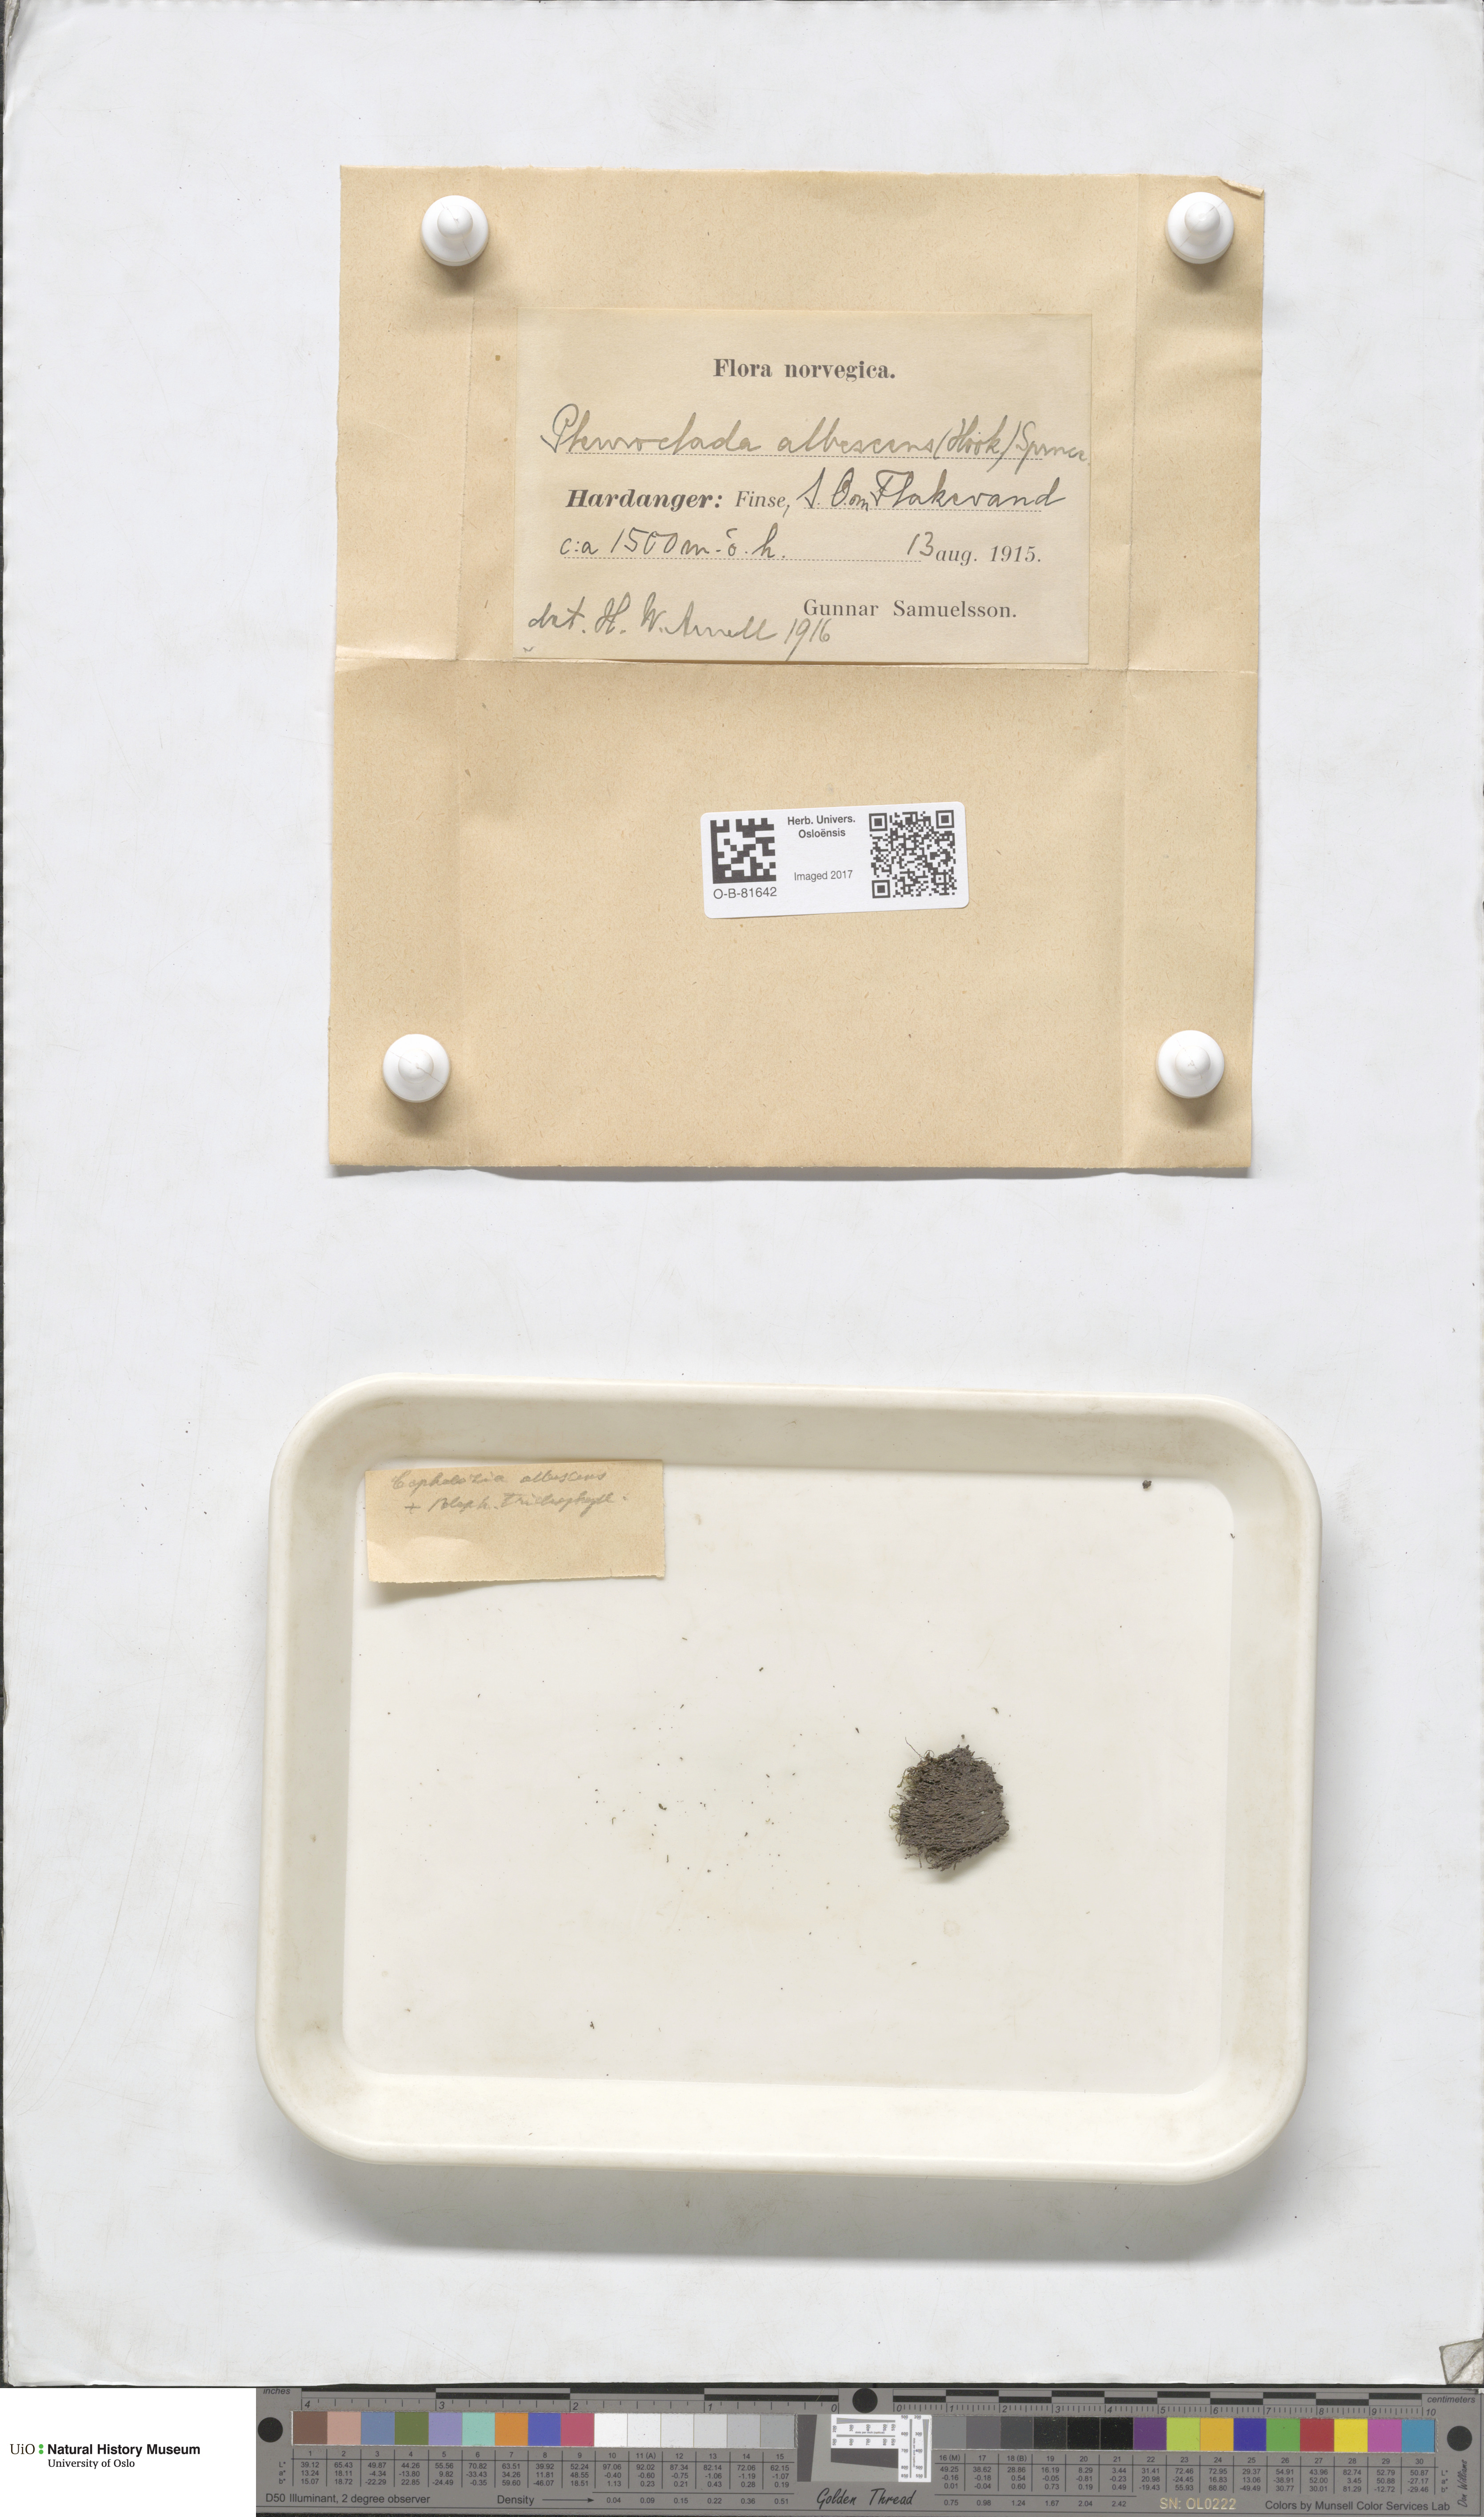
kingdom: Plantae
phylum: Marchantiophyta
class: Jungermanniopsida
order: Jungermanniales
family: Cephaloziaceae
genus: Fuscocephaloziopsis
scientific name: Fuscocephaloziopsis albescens
